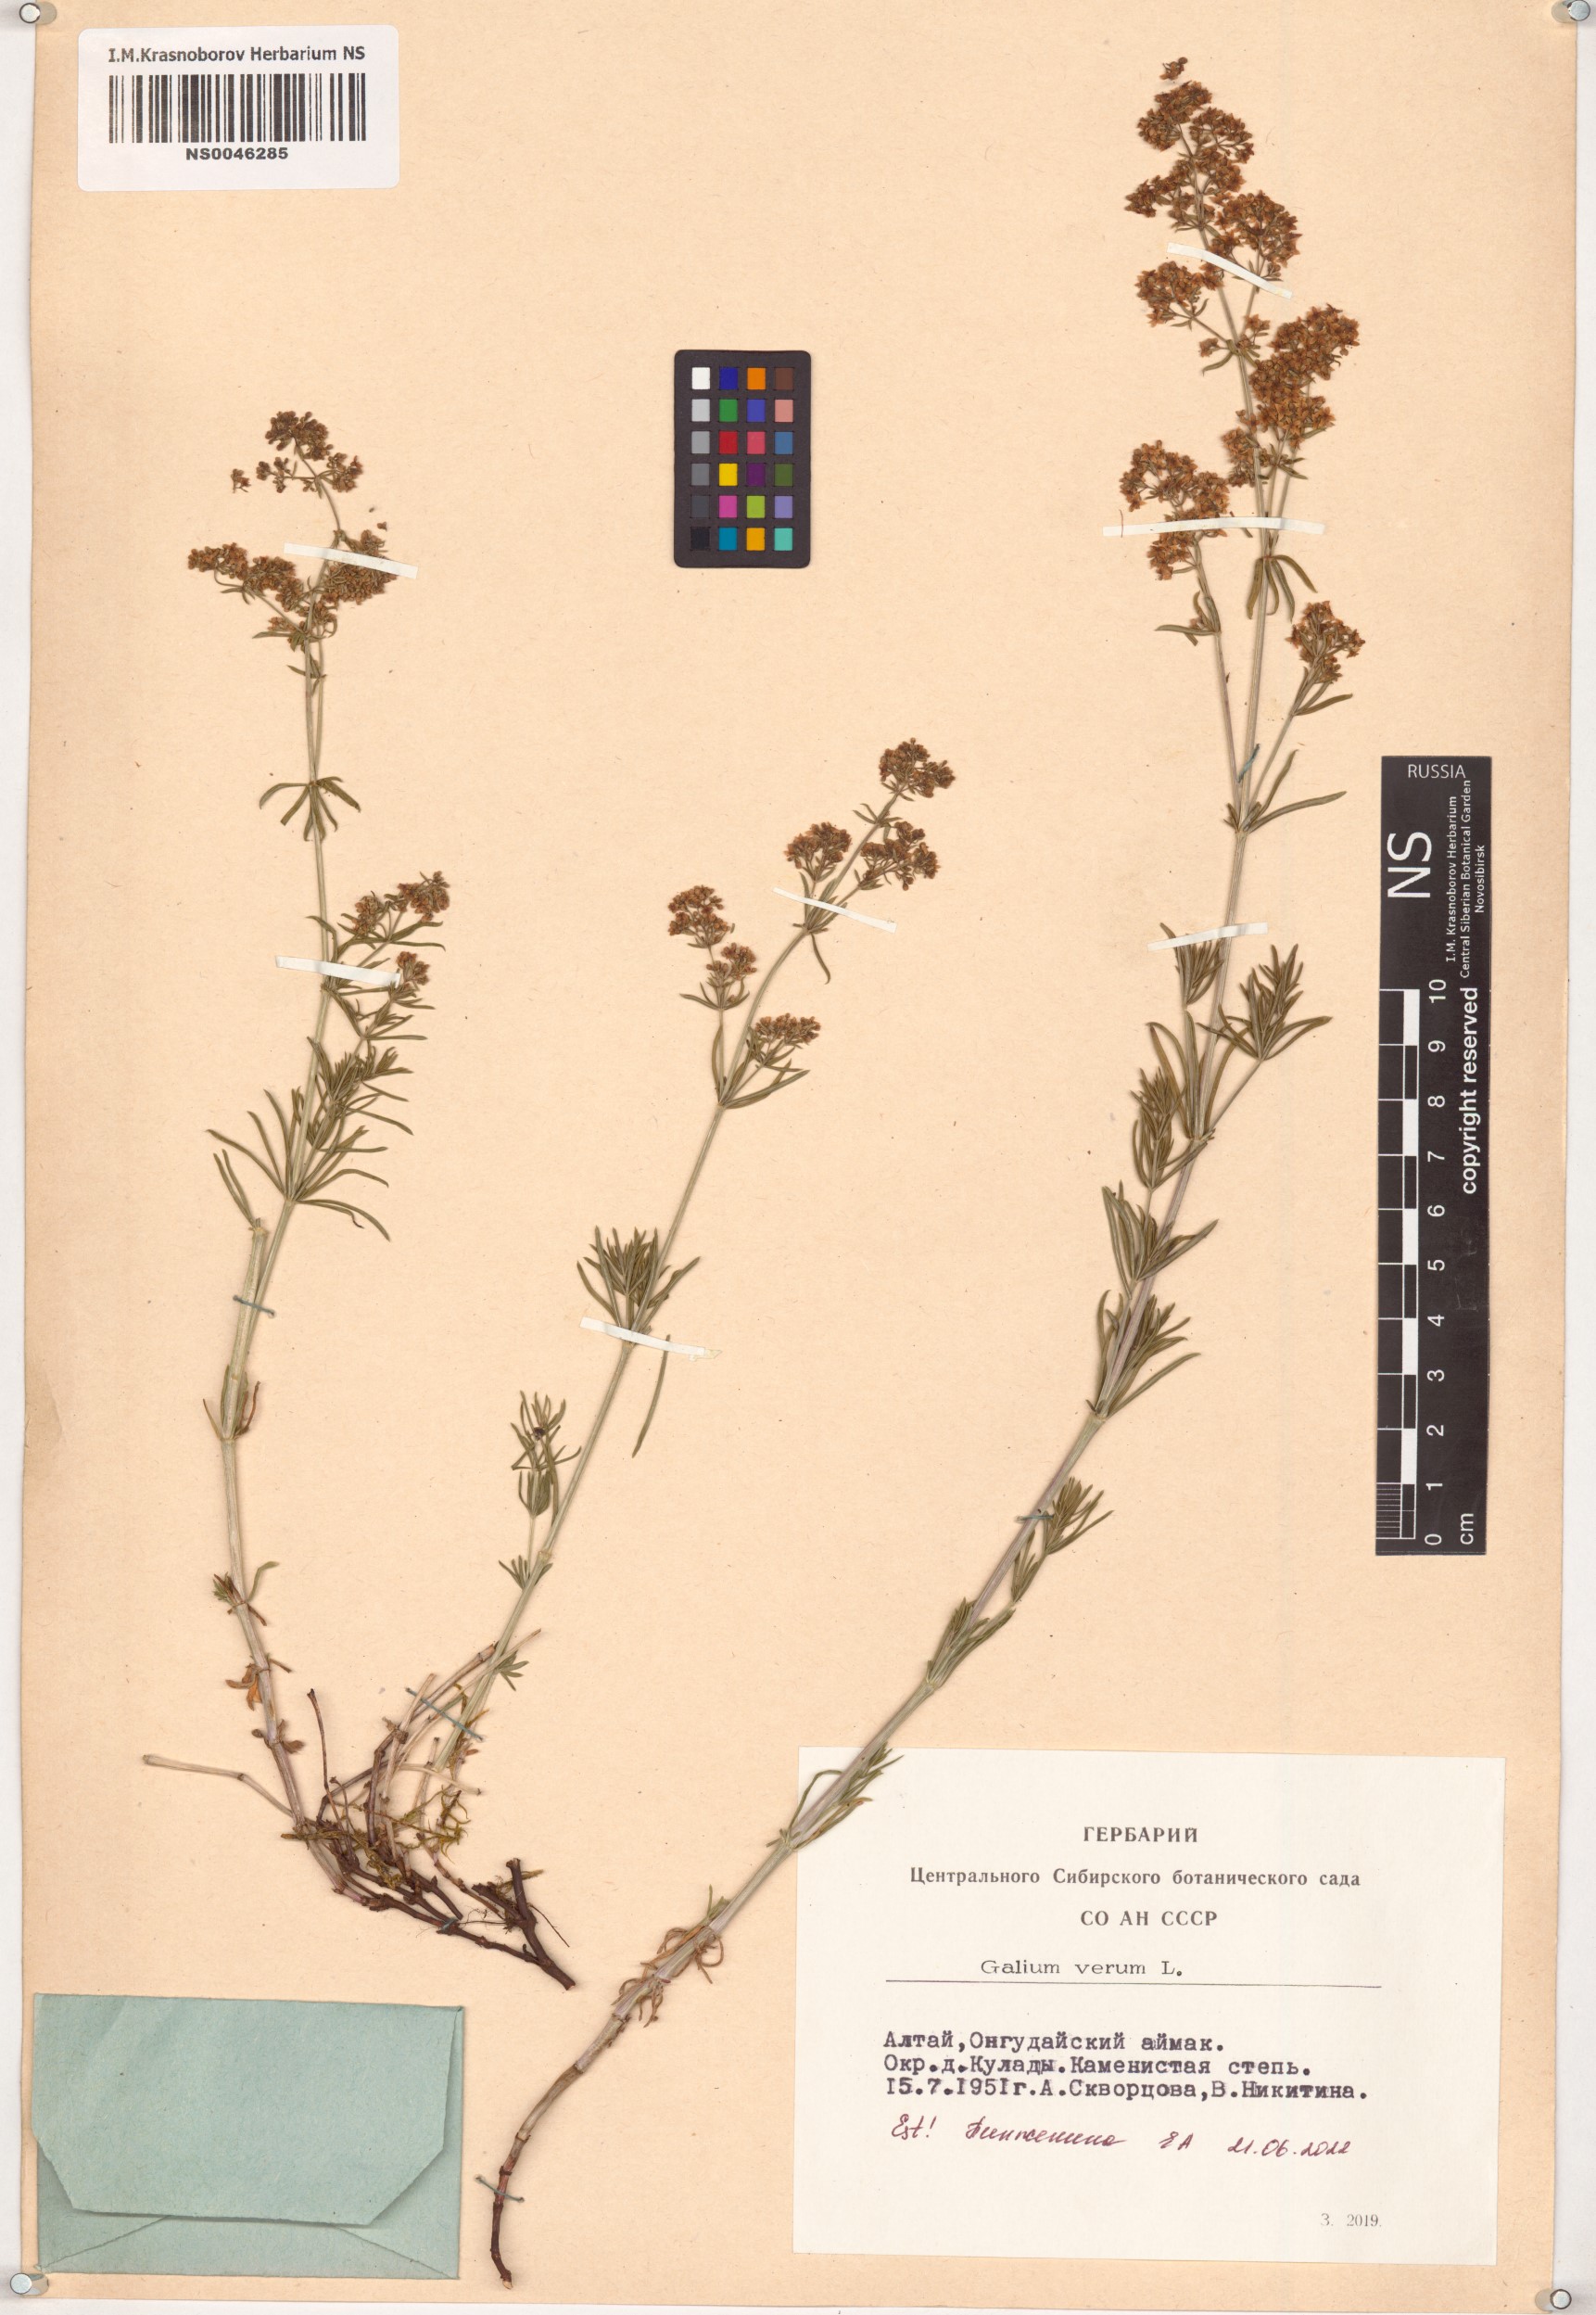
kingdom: Plantae
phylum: Tracheophyta
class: Magnoliopsida
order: Gentianales
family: Rubiaceae
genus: Galium
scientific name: Galium verum
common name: Lady's bedstraw
